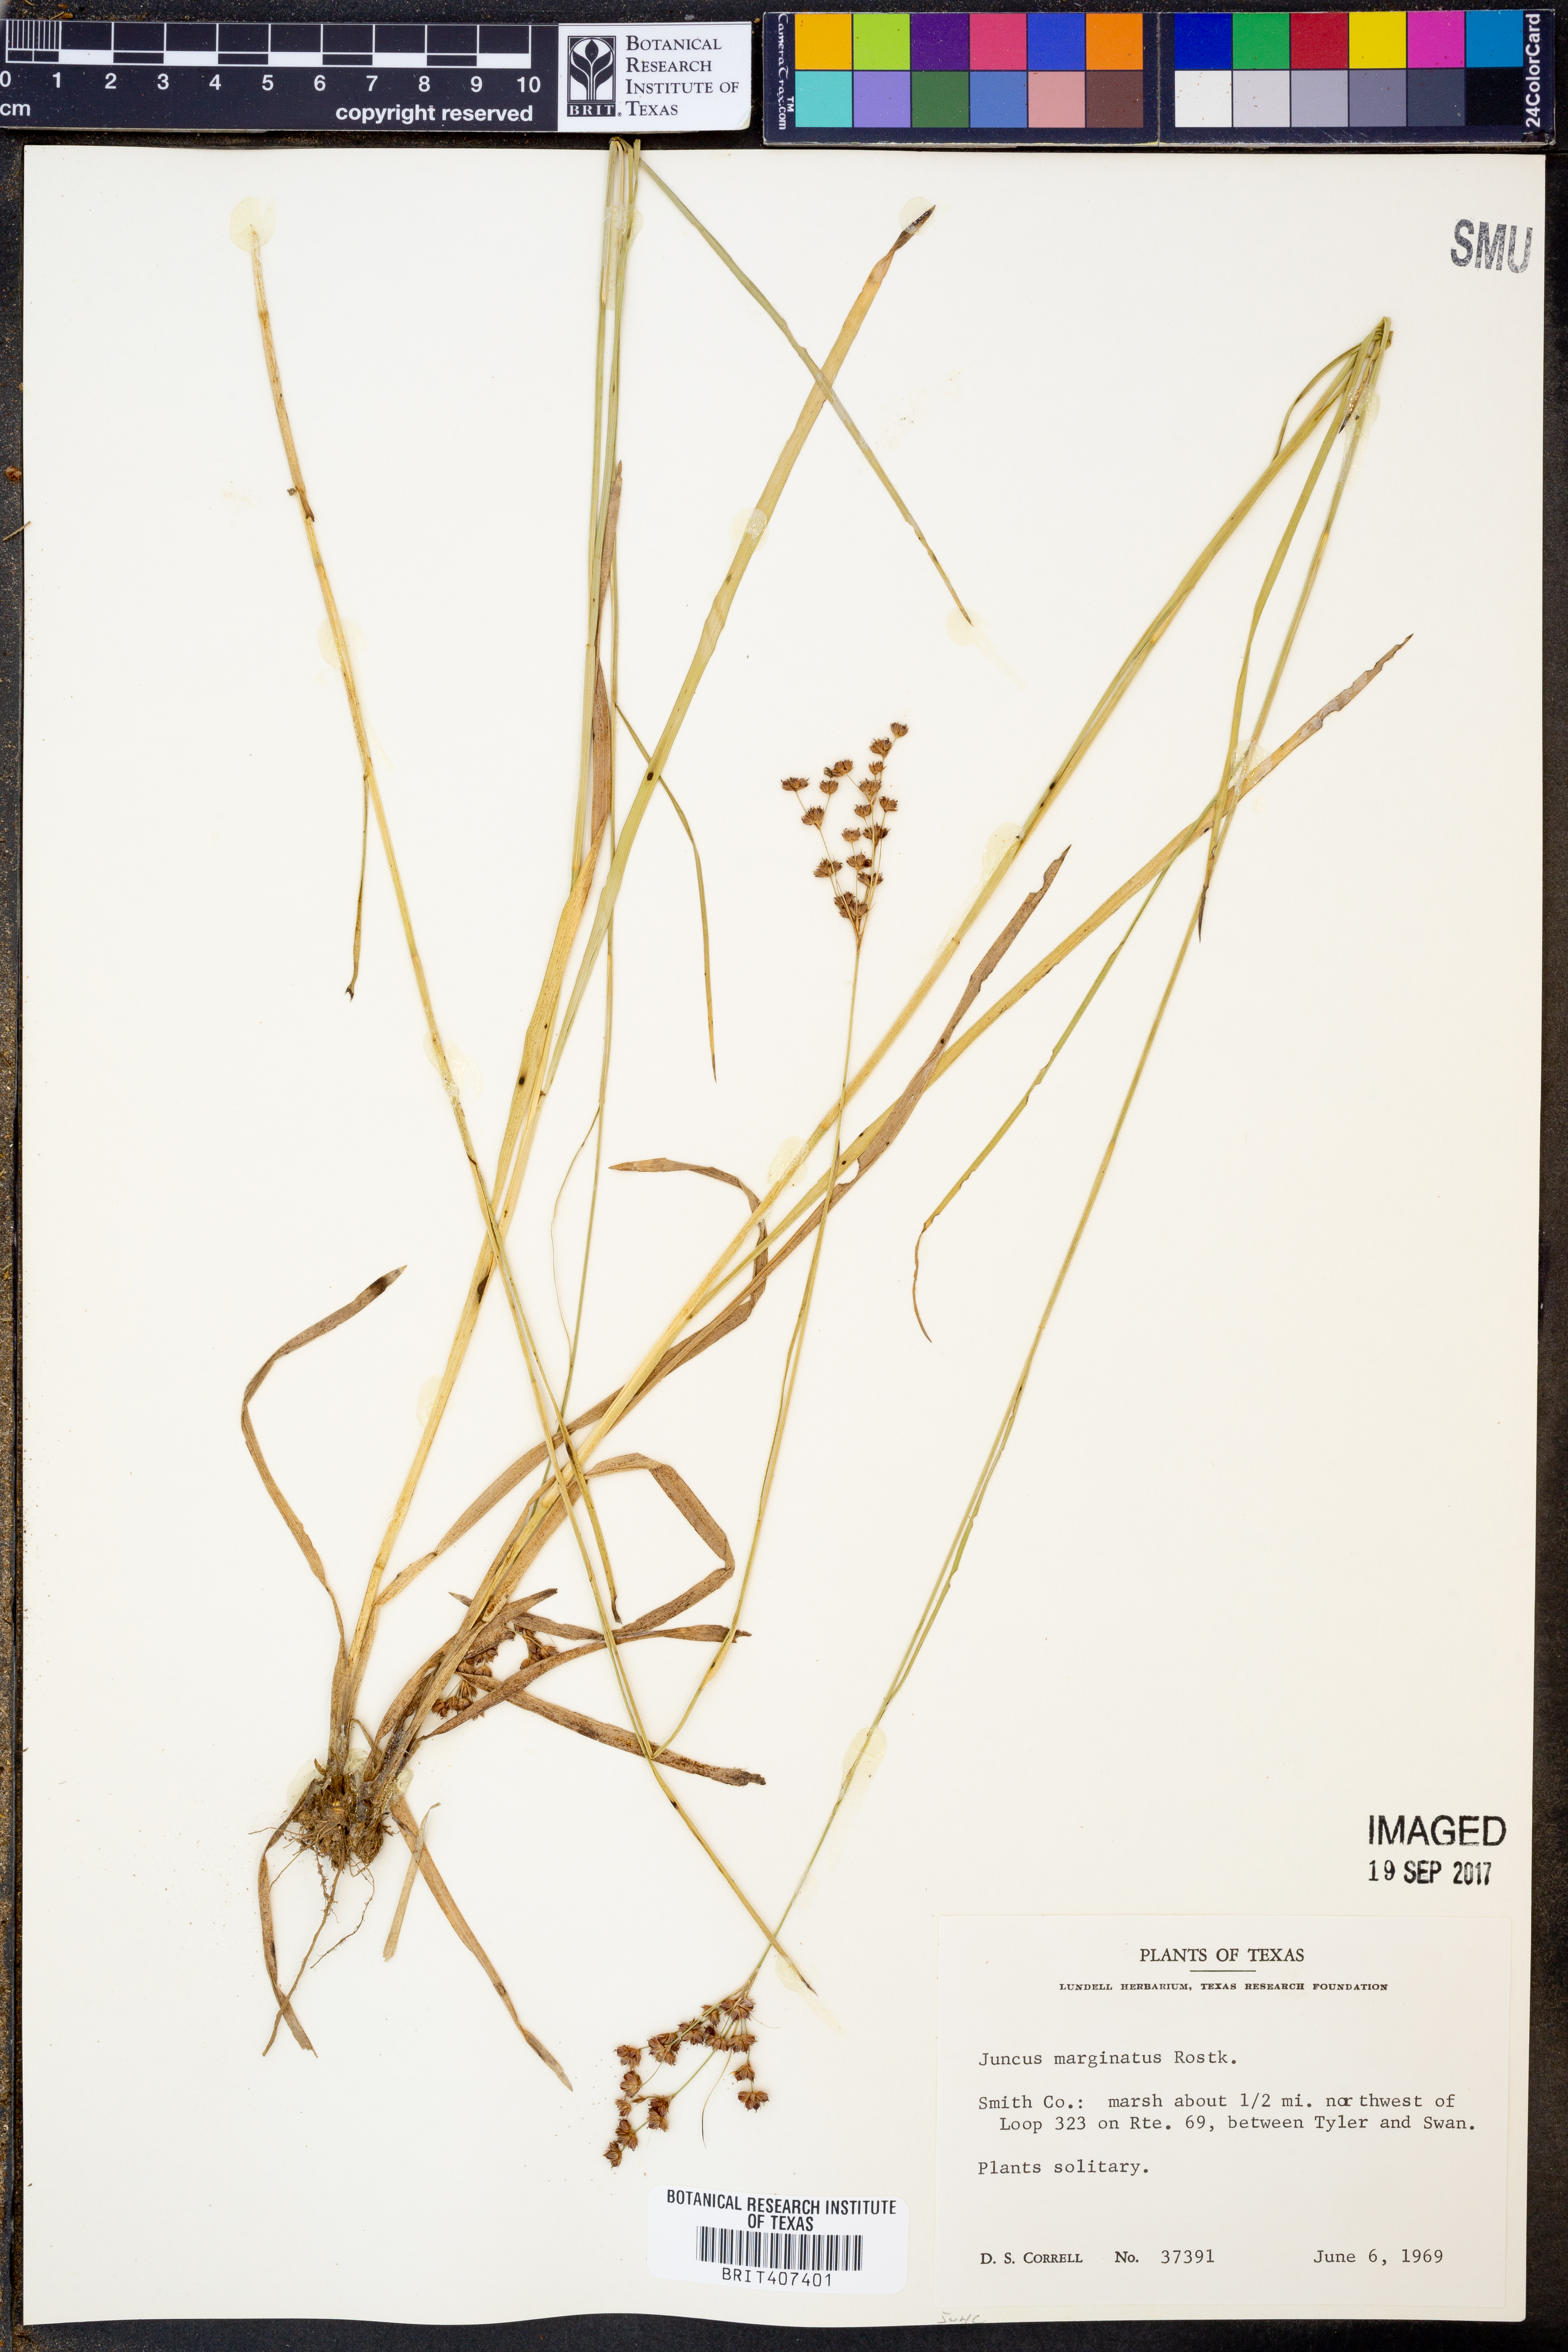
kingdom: Plantae
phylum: Tracheophyta
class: Liliopsida
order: Poales
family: Juncaceae
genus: Juncus
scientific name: Juncus marginatus
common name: Grass-leaf rush
